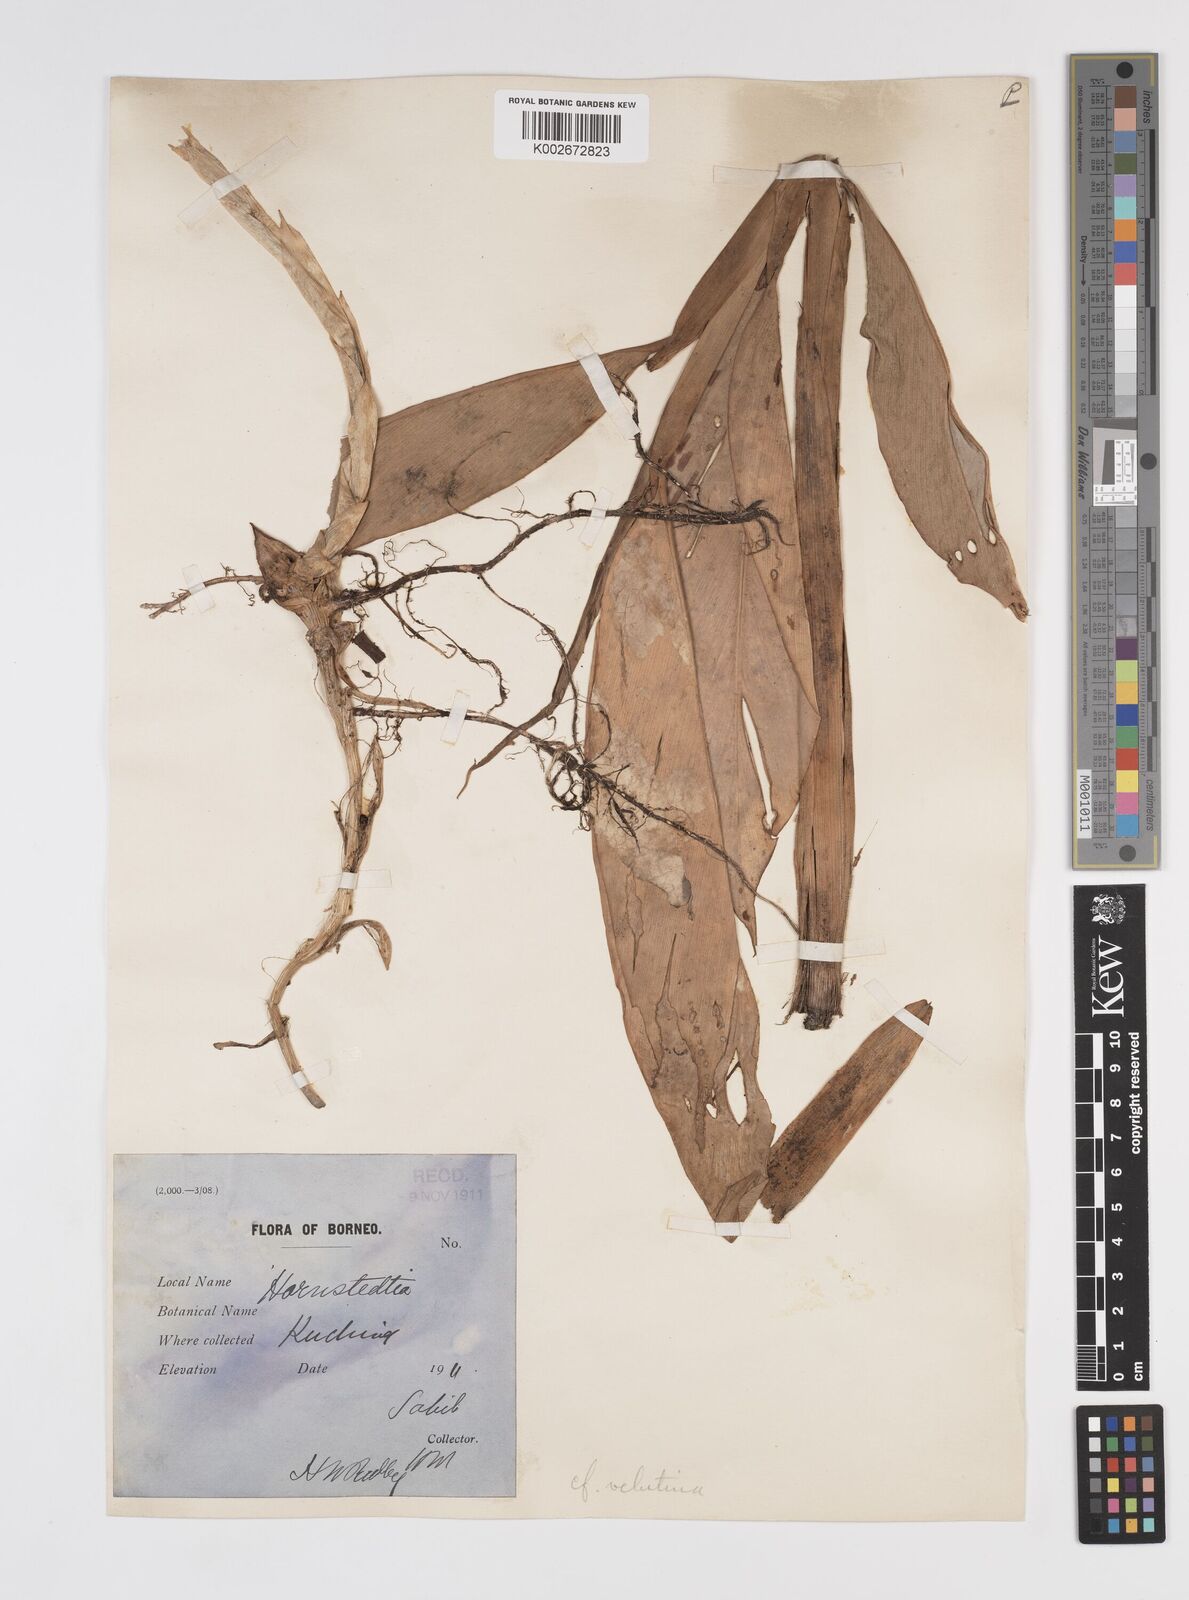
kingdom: Plantae
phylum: Tracheophyta
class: Liliopsida
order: Zingiberales
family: Zingiberaceae
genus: Etlingera
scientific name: Etlingera velutina
